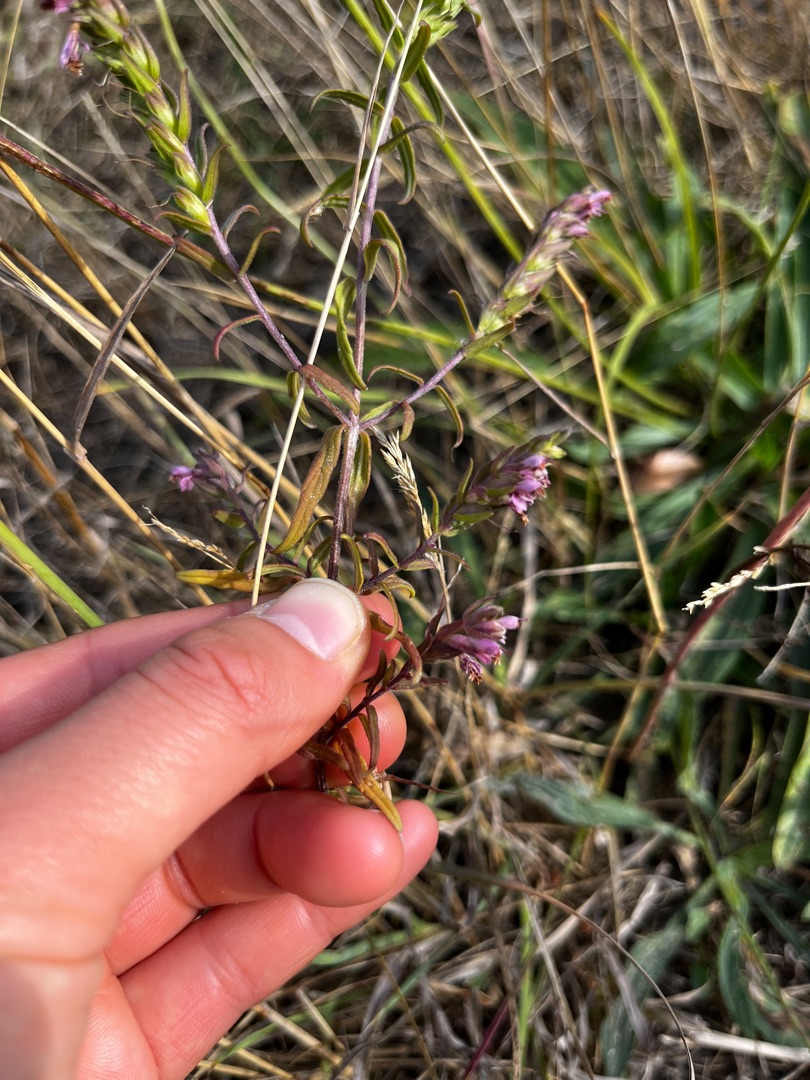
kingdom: Plantae
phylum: Tracheophyta
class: Magnoliopsida
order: Lamiales
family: Orobanchaceae
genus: Odontites
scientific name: Odontites vulgaris
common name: Høst-rødtop
